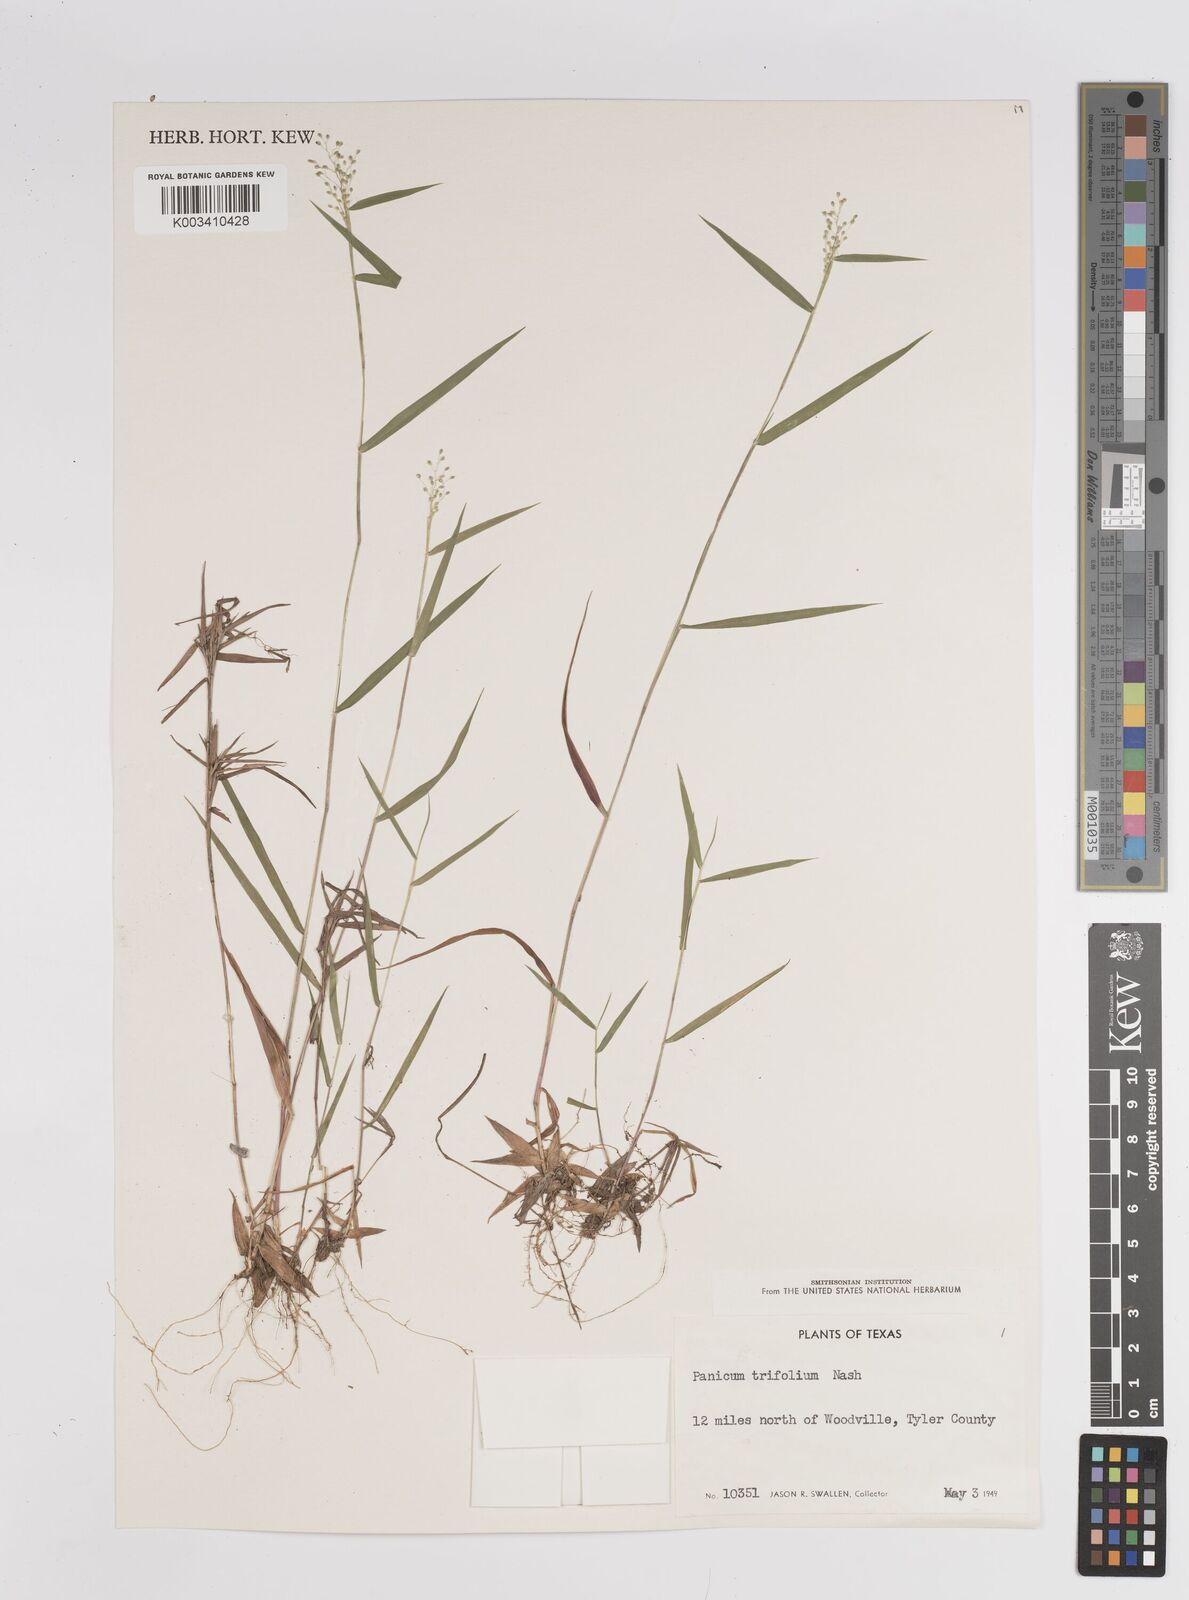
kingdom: Plantae
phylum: Tracheophyta
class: Liliopsida
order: Poales
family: Poaceae
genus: Dichanthelium
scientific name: Dichanthelium trifolium
